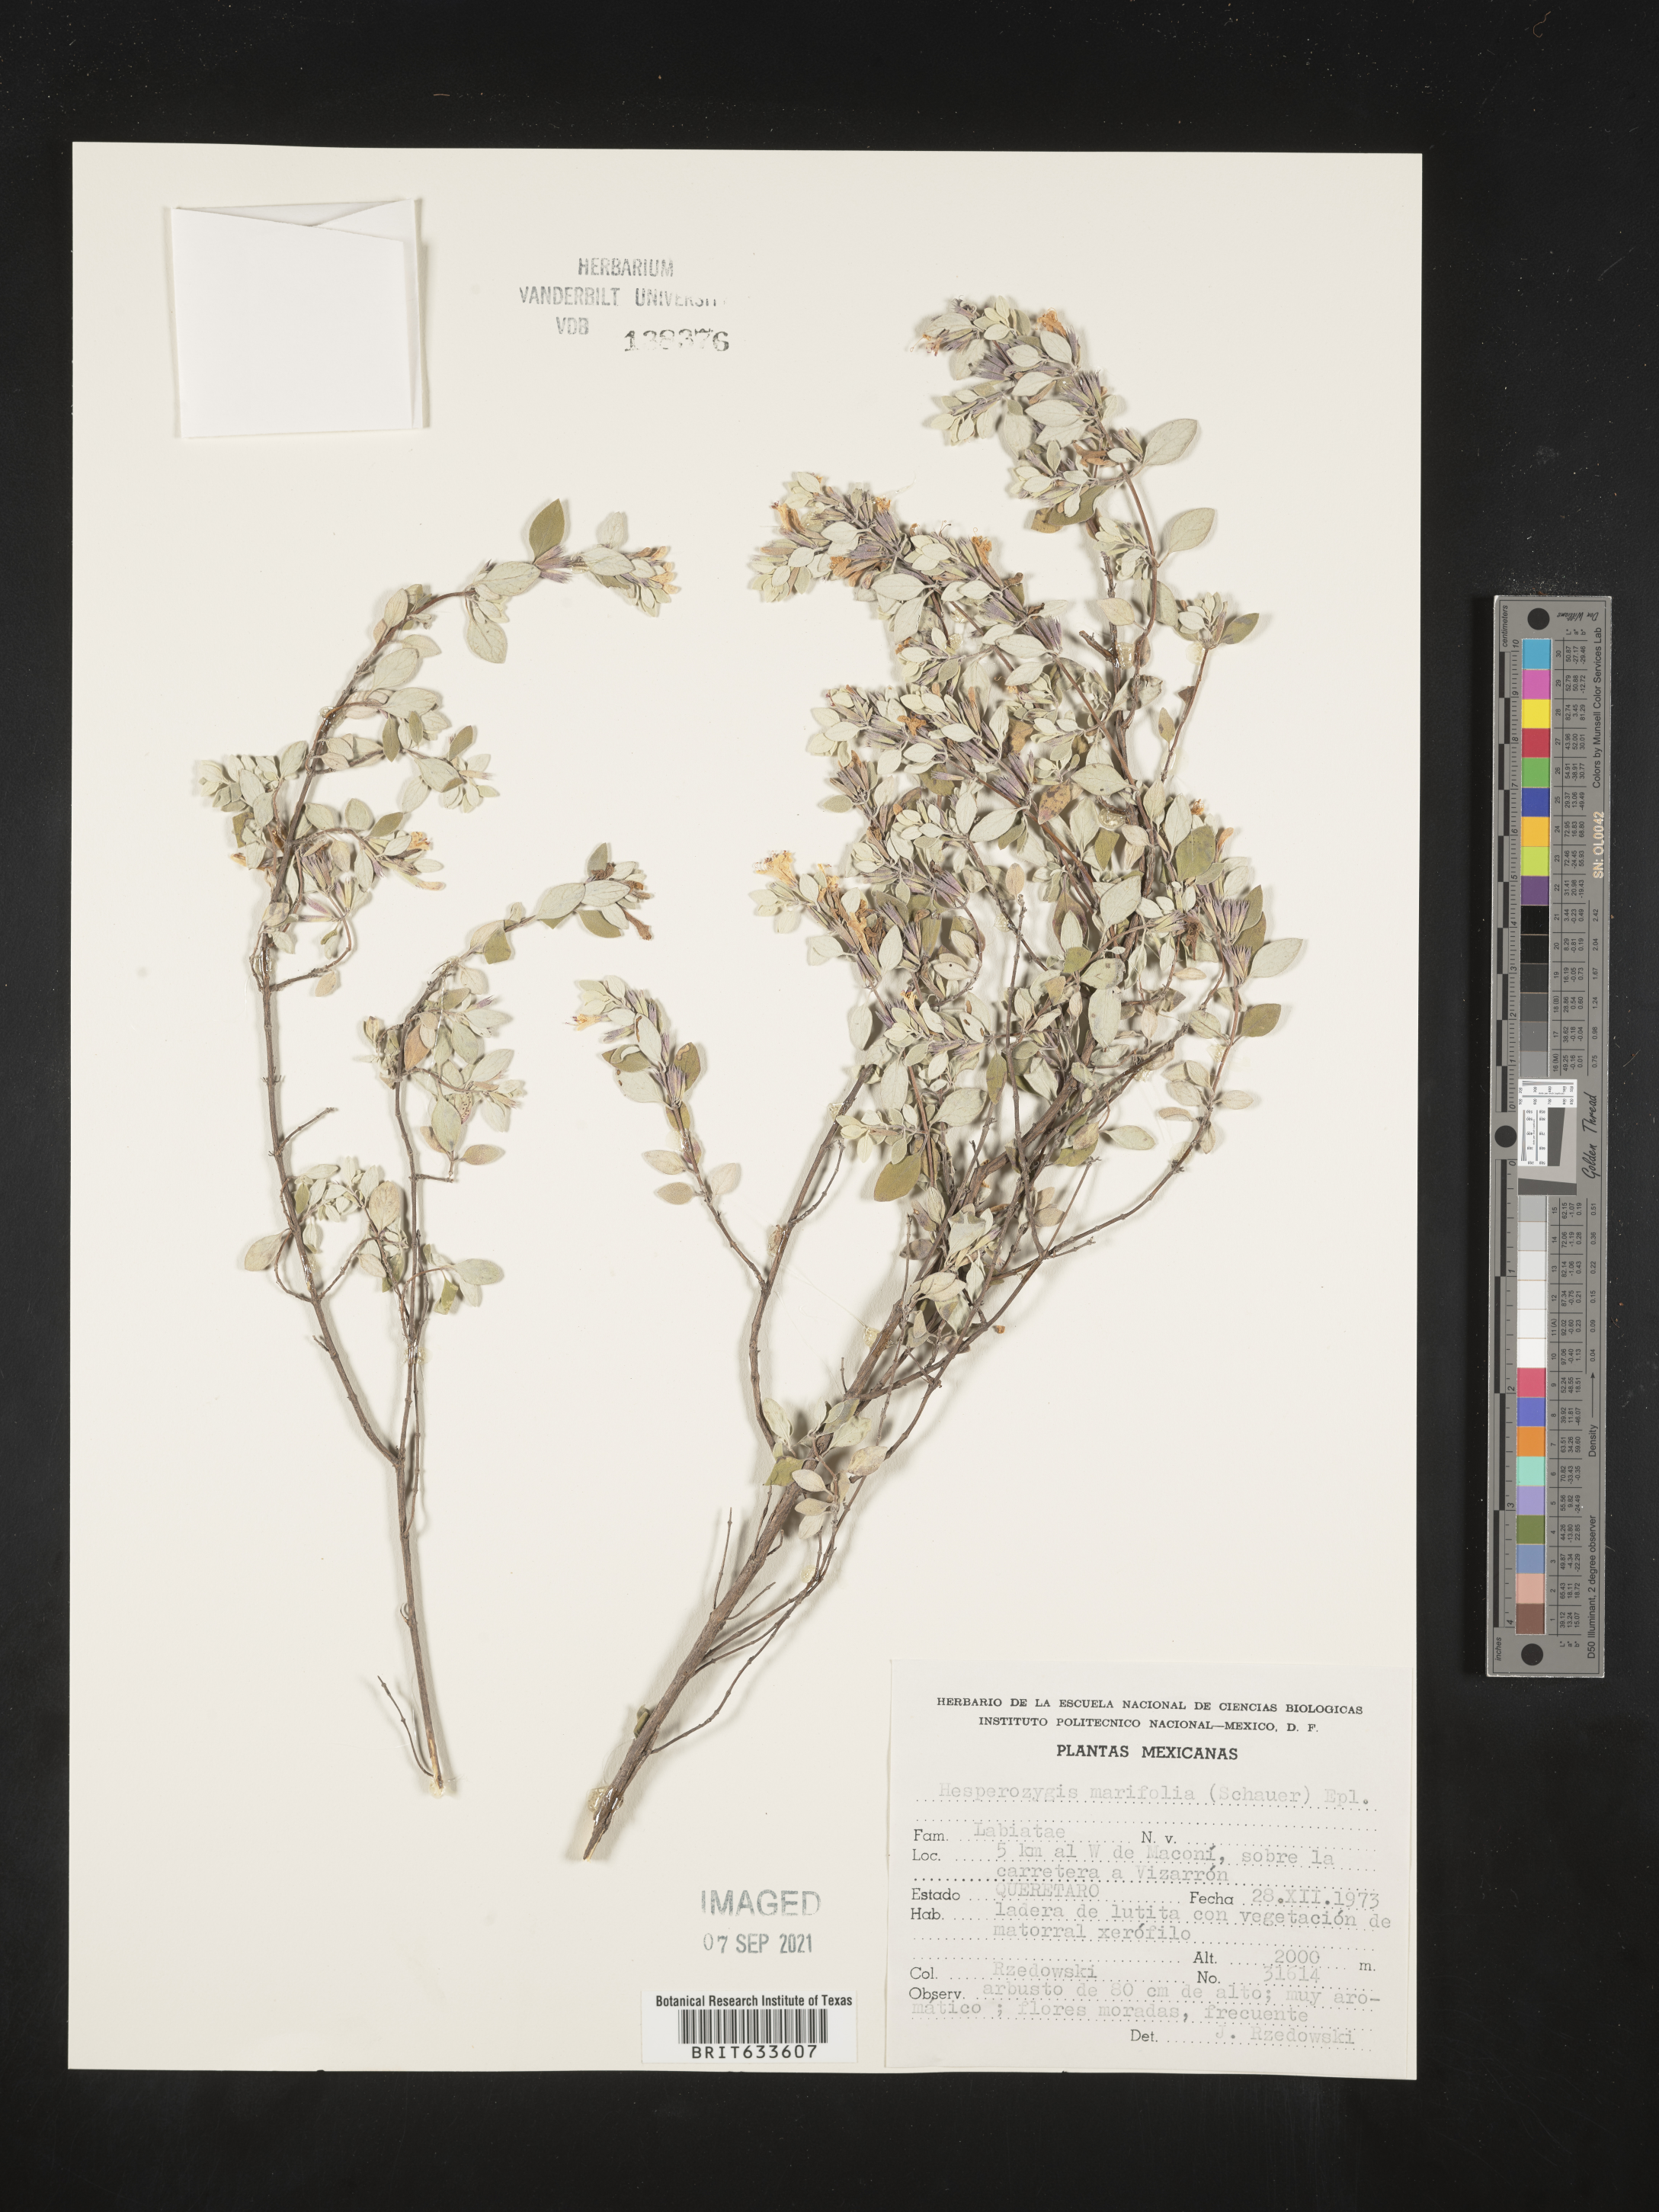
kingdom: Plantae
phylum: Tracheophyta
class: Magnoliopsida
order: Lamiales
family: Lamiaceae
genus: Poliomintha
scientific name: Poliomintha marifolia
